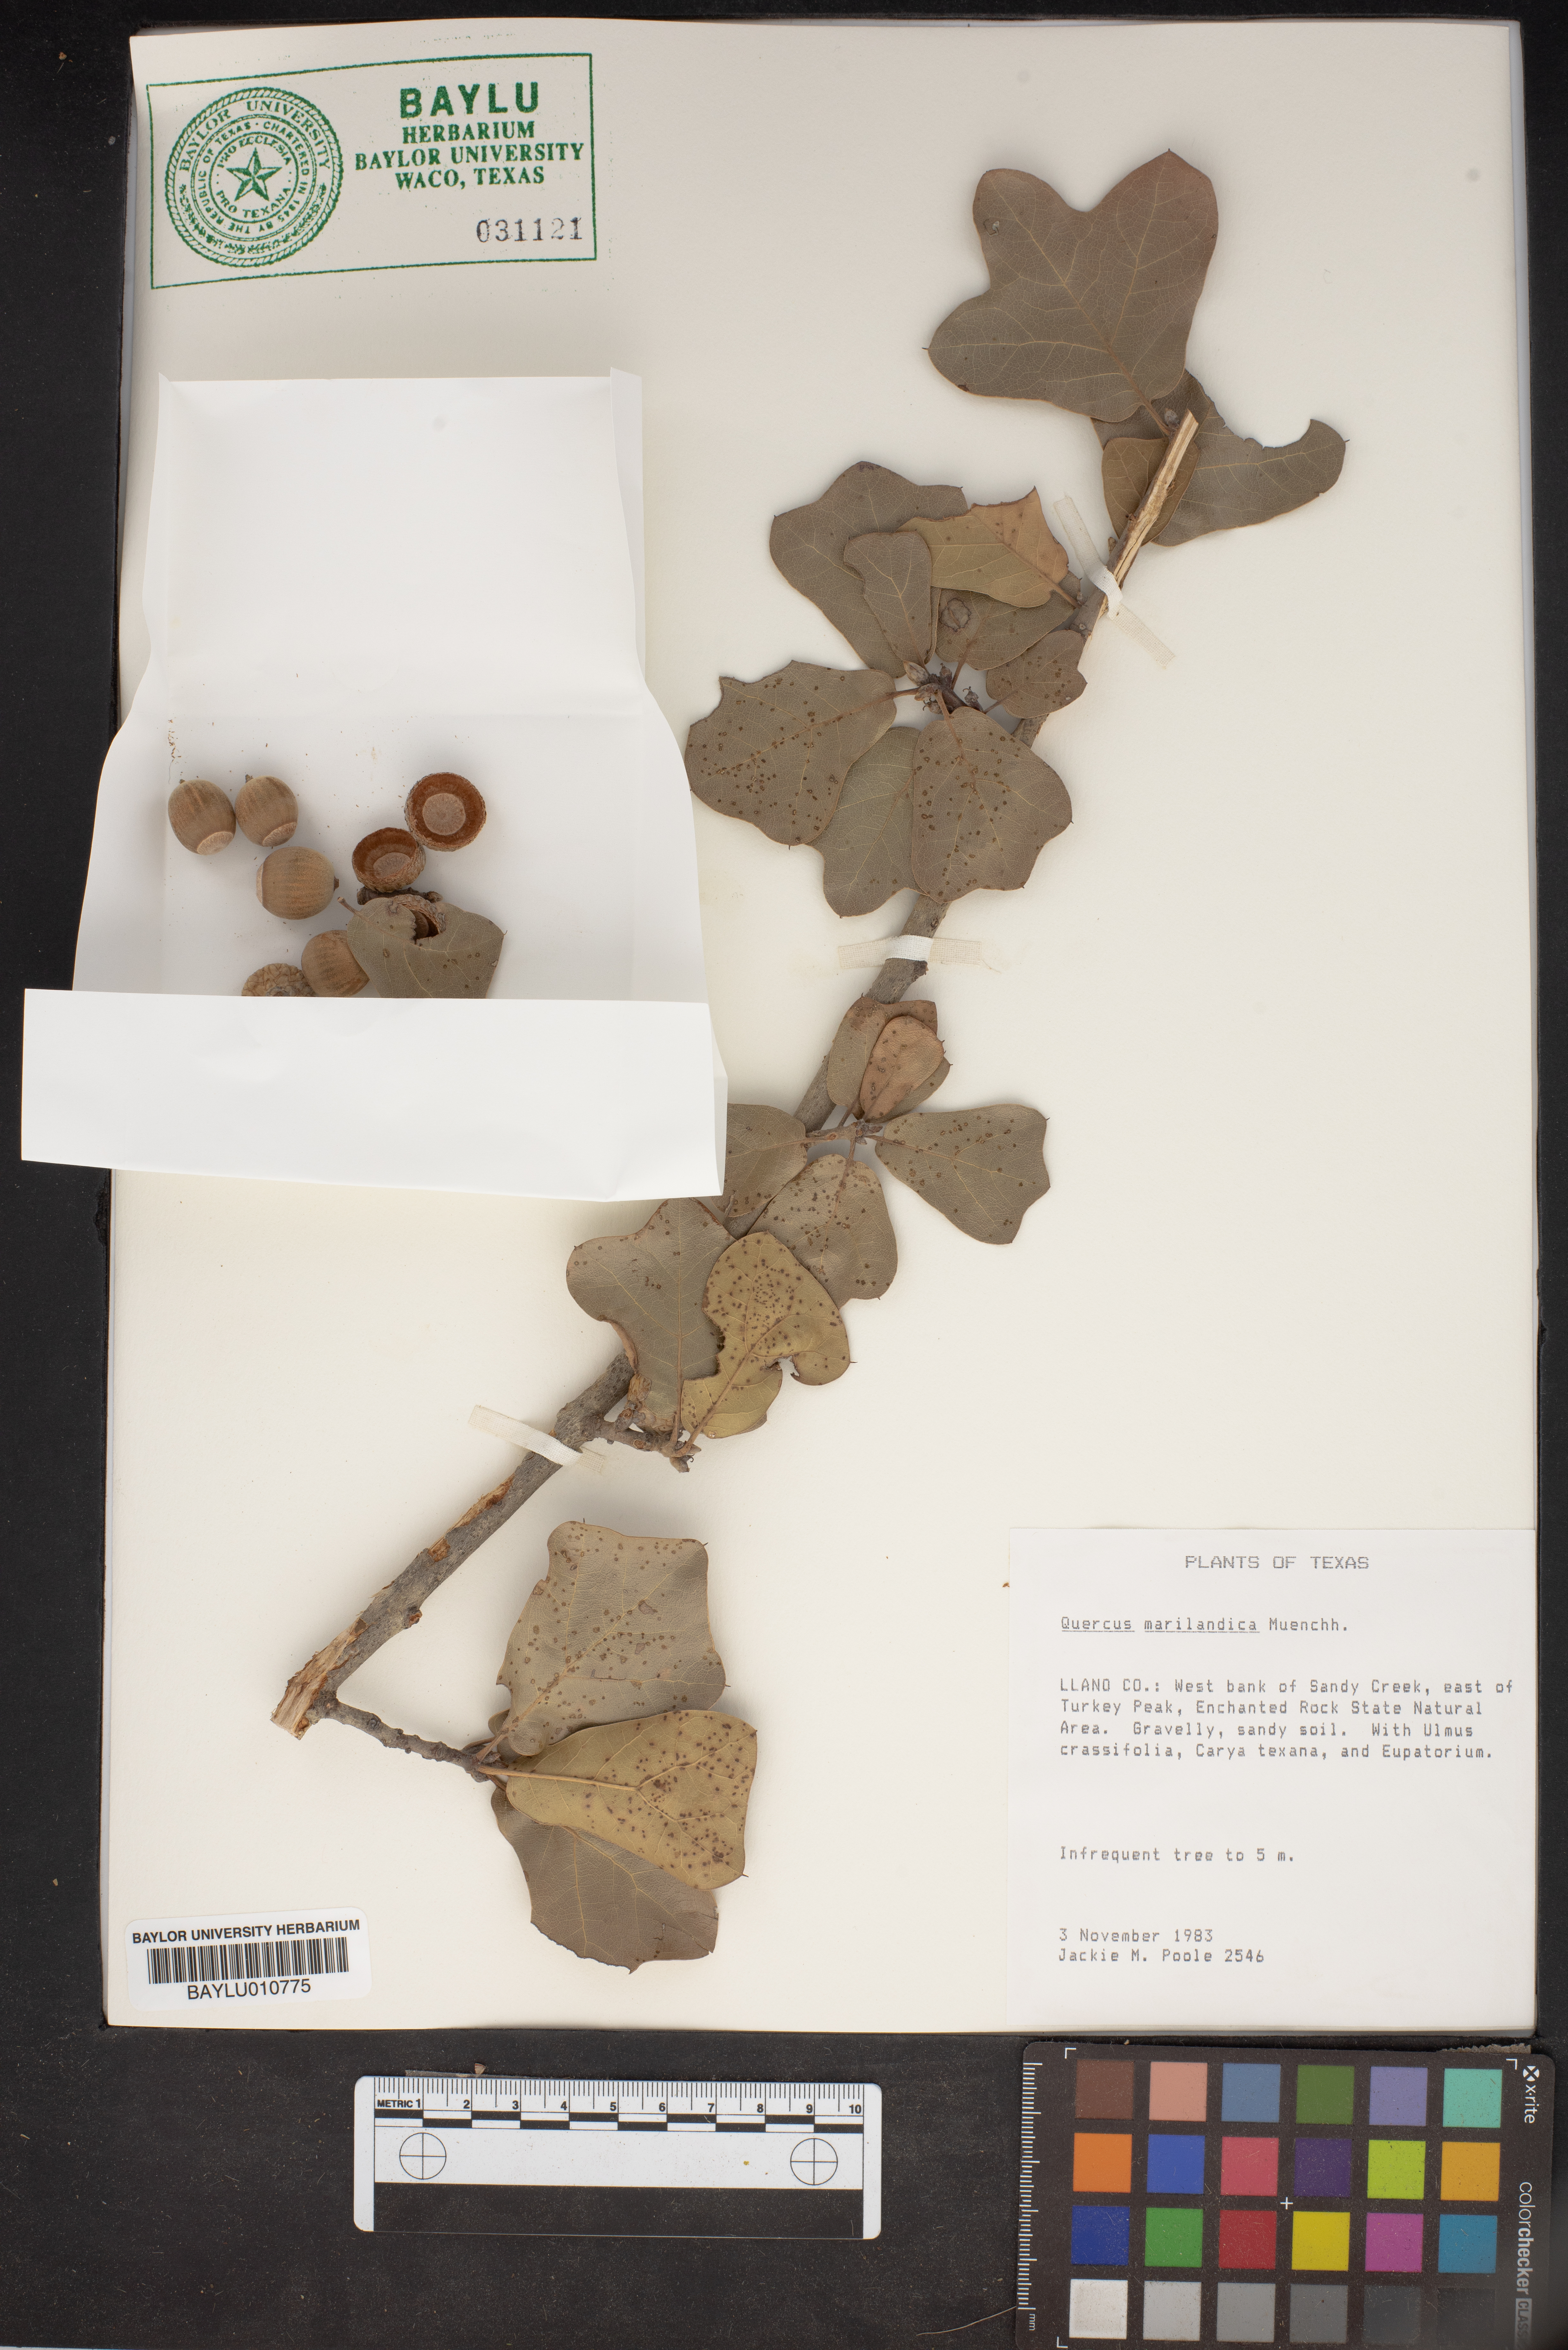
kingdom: Plantae
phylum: Tracheophyta
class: Magnoliopsida
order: Fagales
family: Fagaceae
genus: Quercus
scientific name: Quercus marilandica
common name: Blackjack oak
